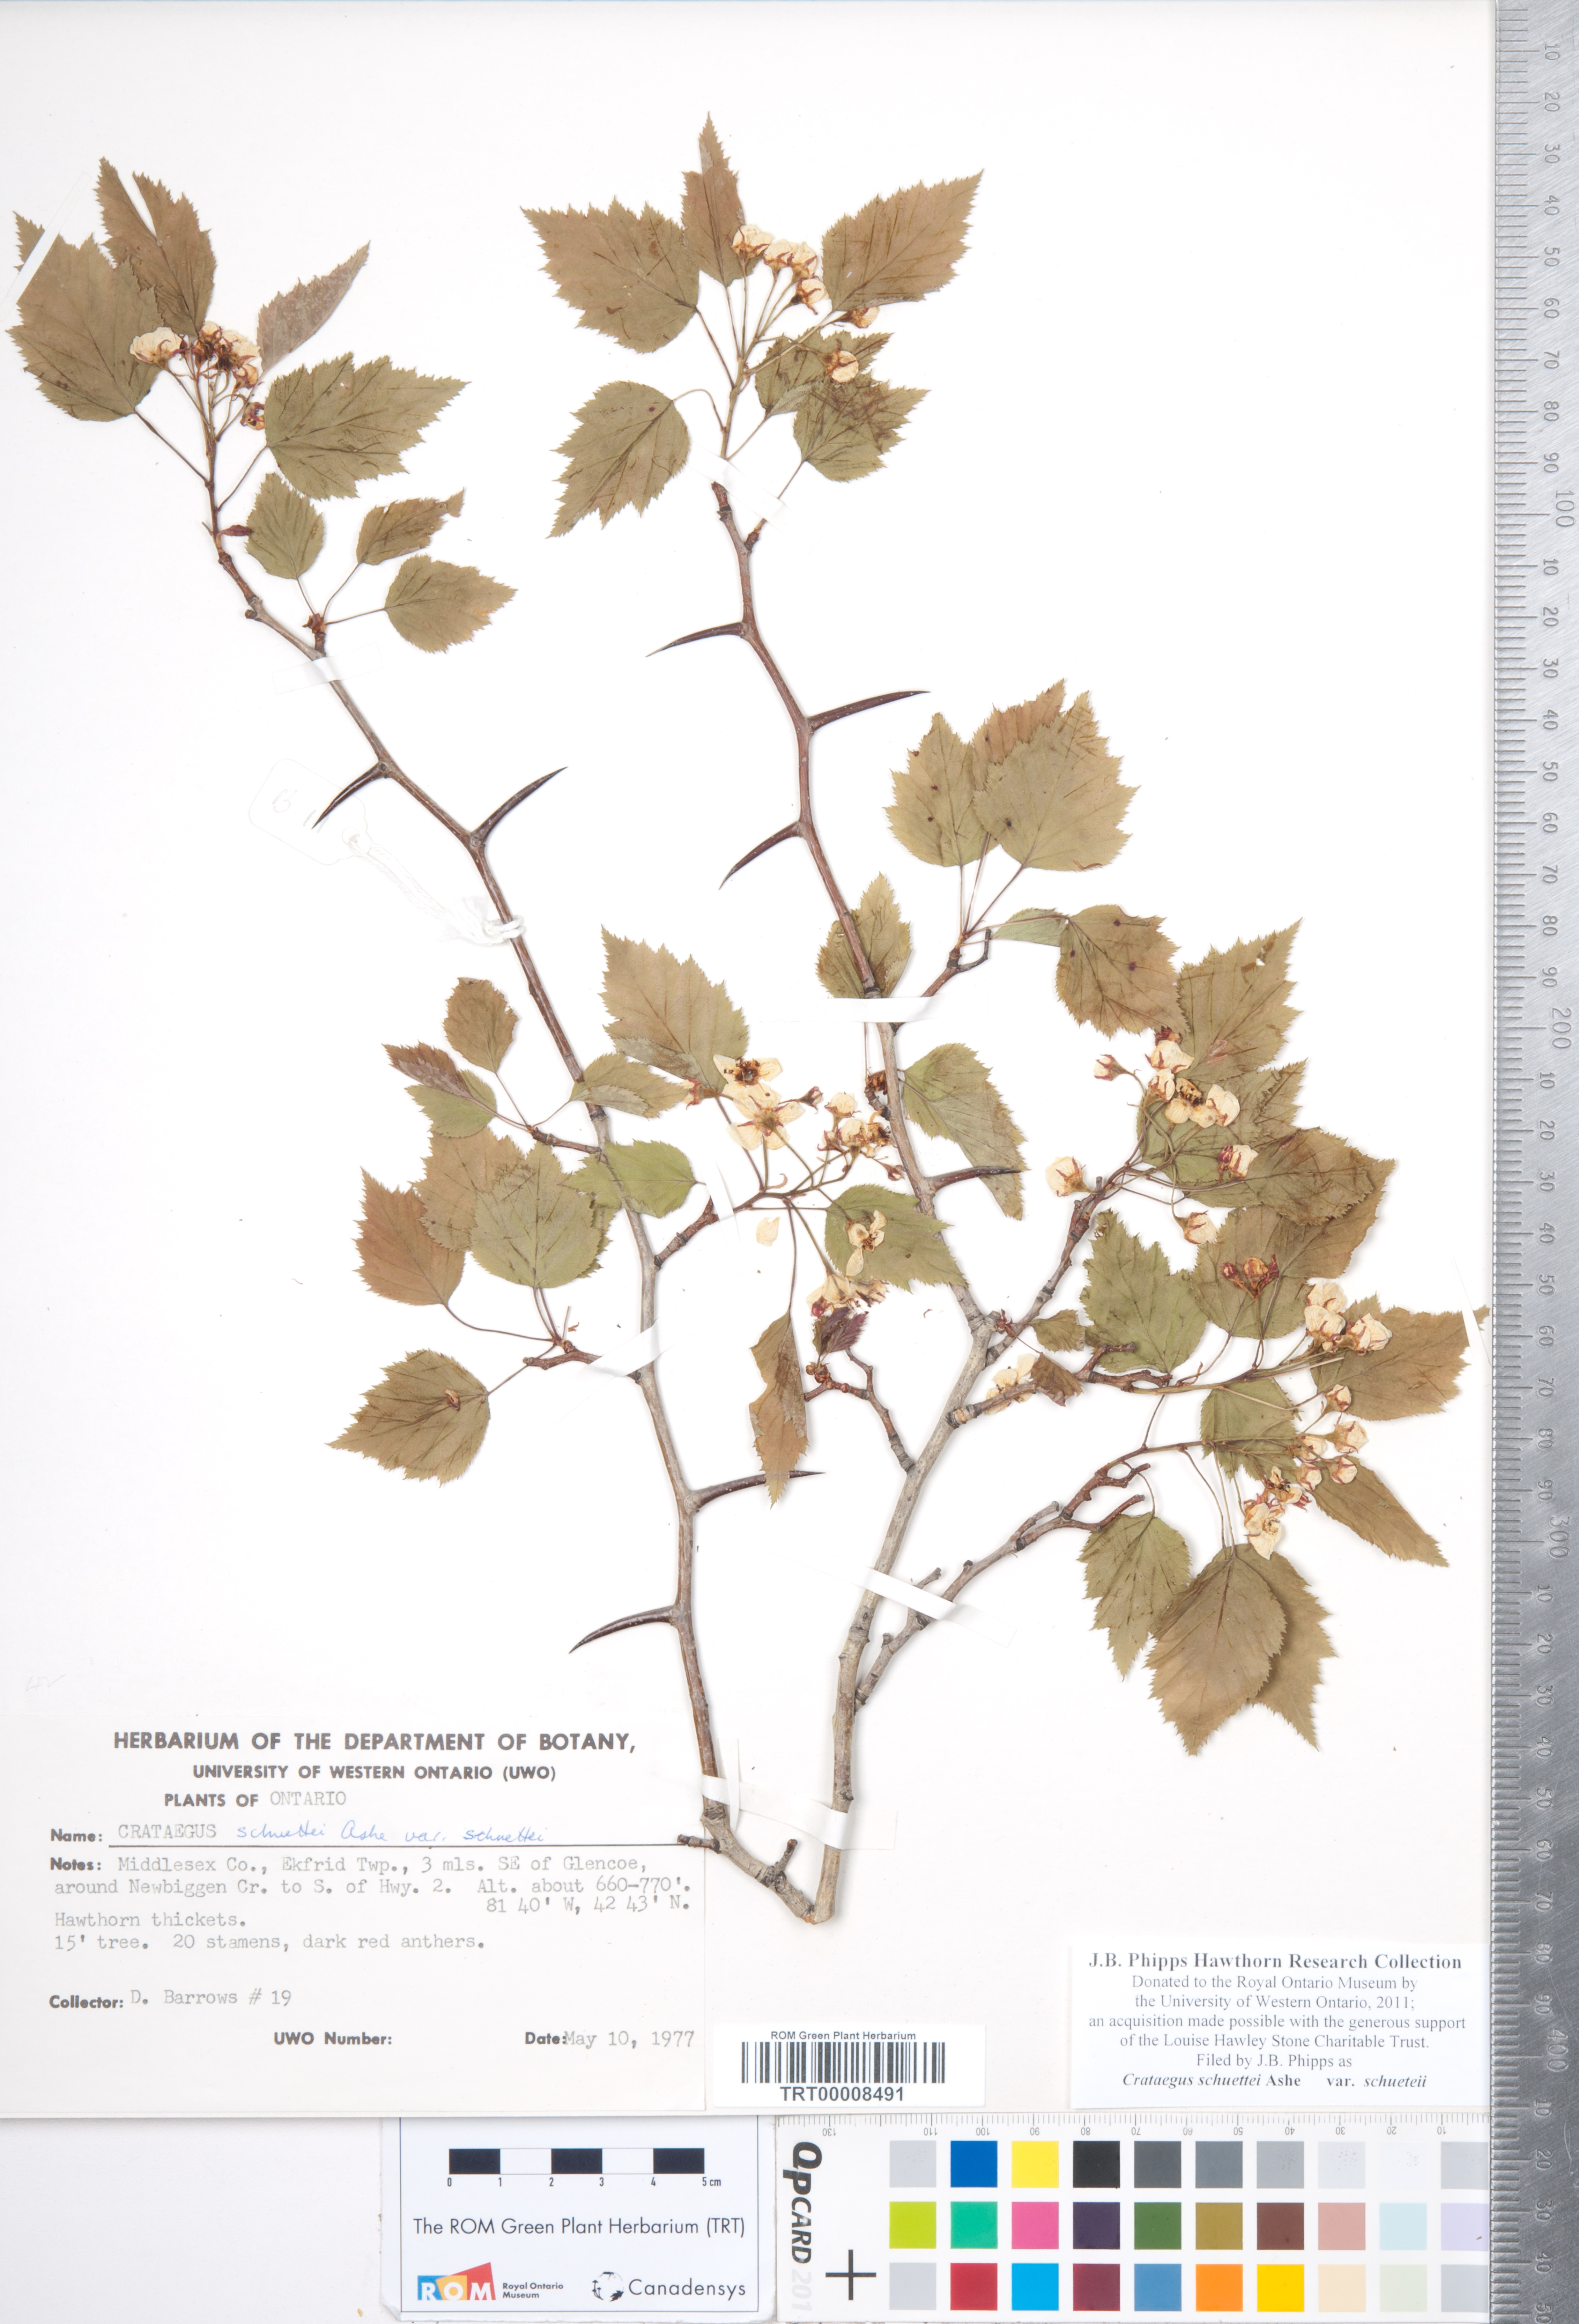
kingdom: Plantae
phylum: Tracheophyta
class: Magnoliopsida
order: Rosales
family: Rosaceae
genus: Crataegus
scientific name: Crataegus schuettei
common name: Schuette's hawthorn
